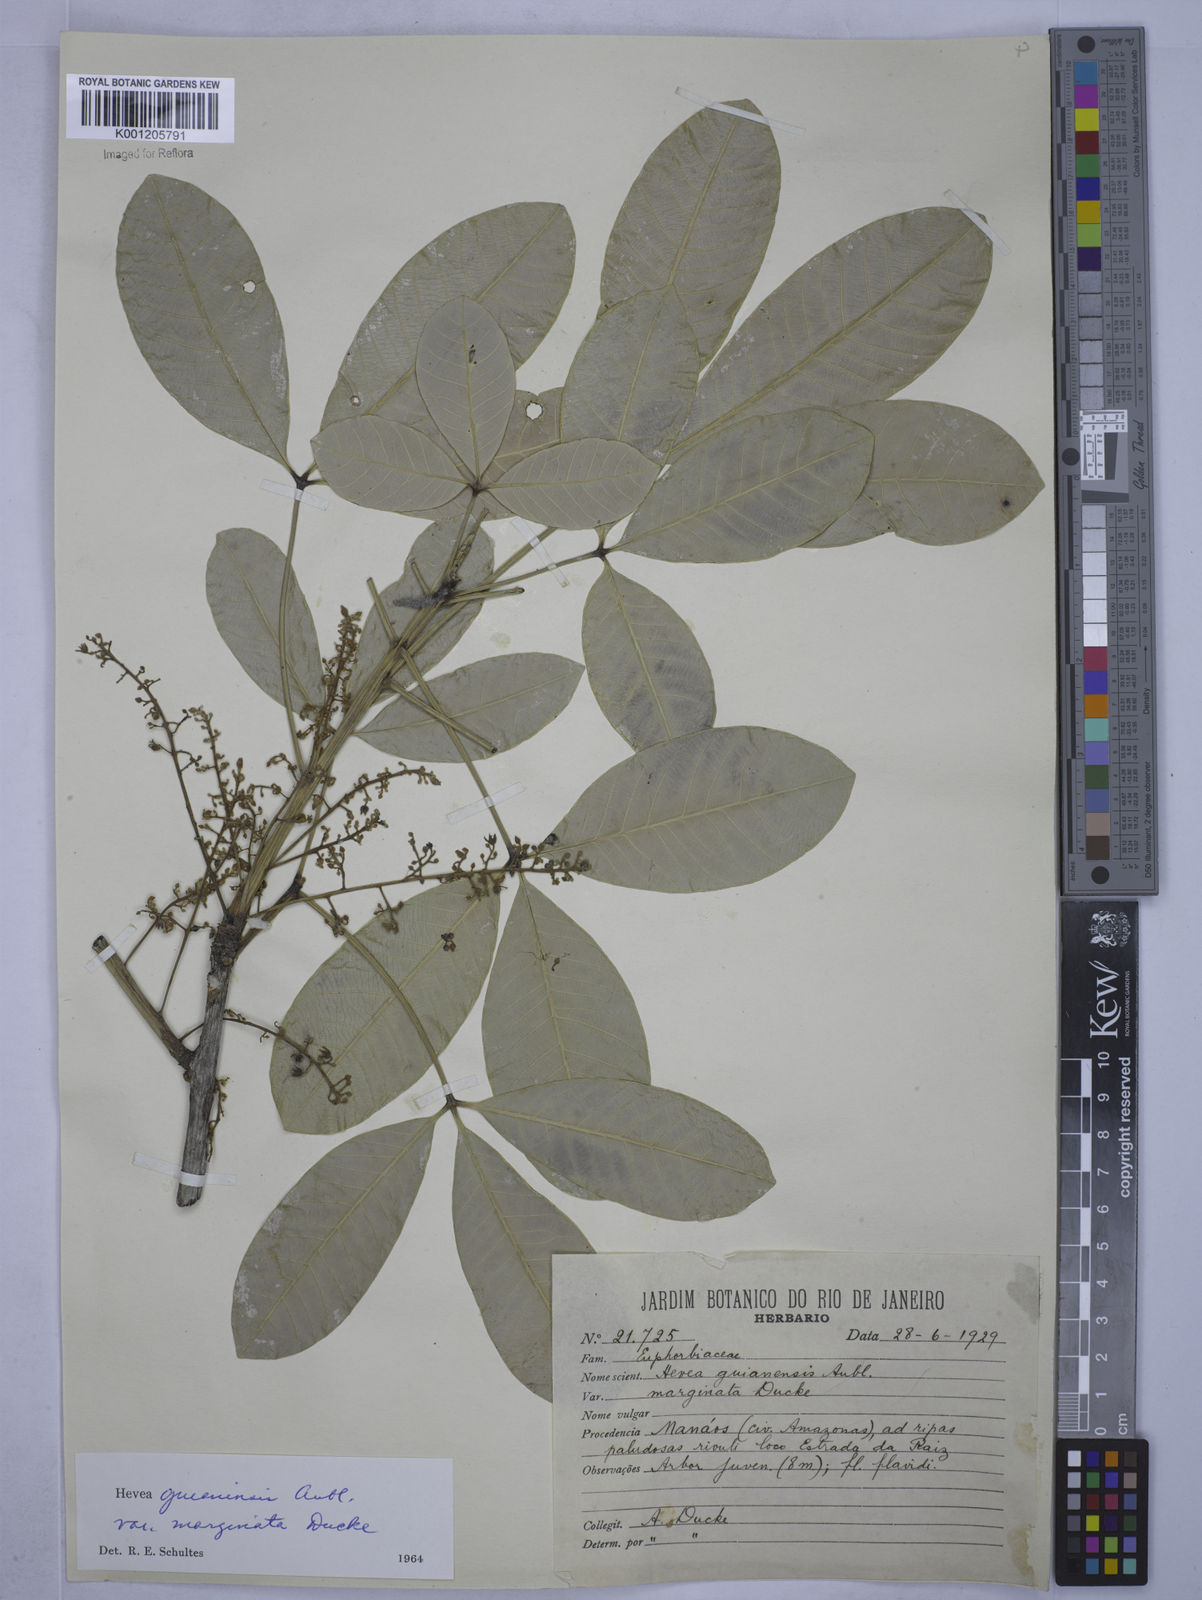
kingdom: Plantae
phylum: Tracheophyta
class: Magnoliopsida
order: Malpighiales
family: Euphorbiaceae
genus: Hevea
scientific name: Hevea guianensis
